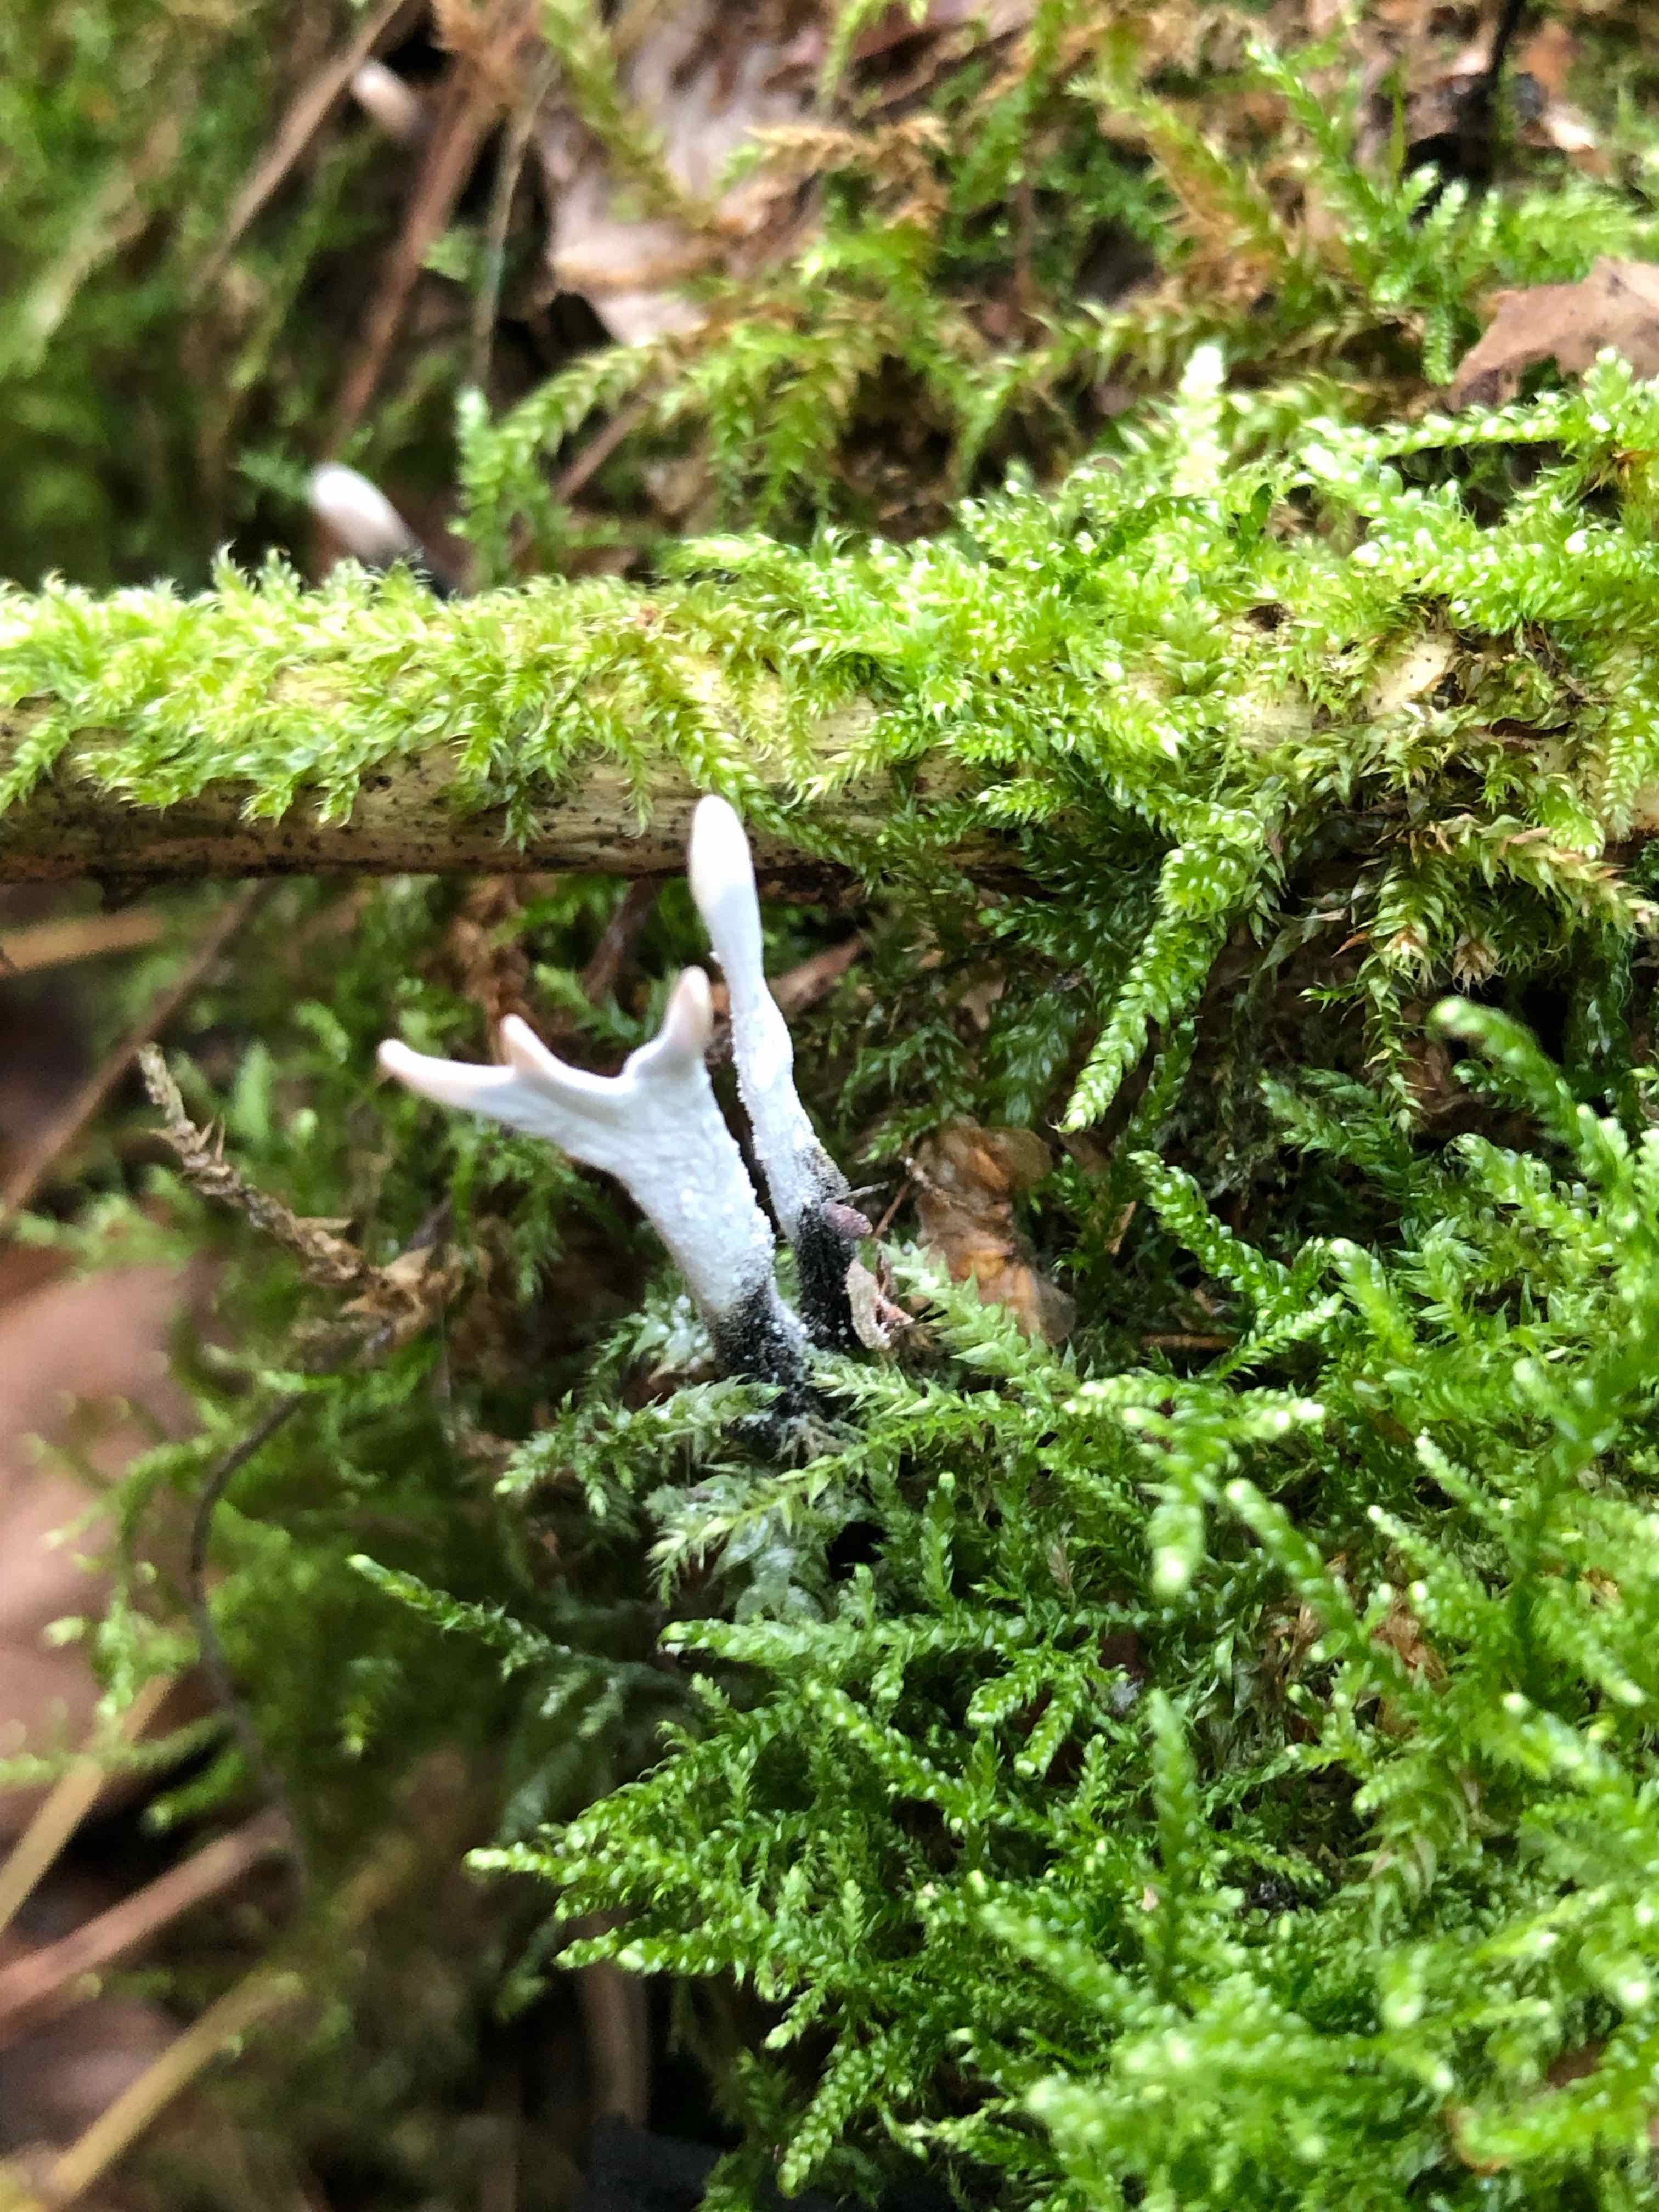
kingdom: Fungi
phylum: Ascomycota
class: Sordariomycetes
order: Xylariales
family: Xylariaceae
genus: Xylaria
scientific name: Xylaria hypoxylon
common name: grenet stødsvamp
